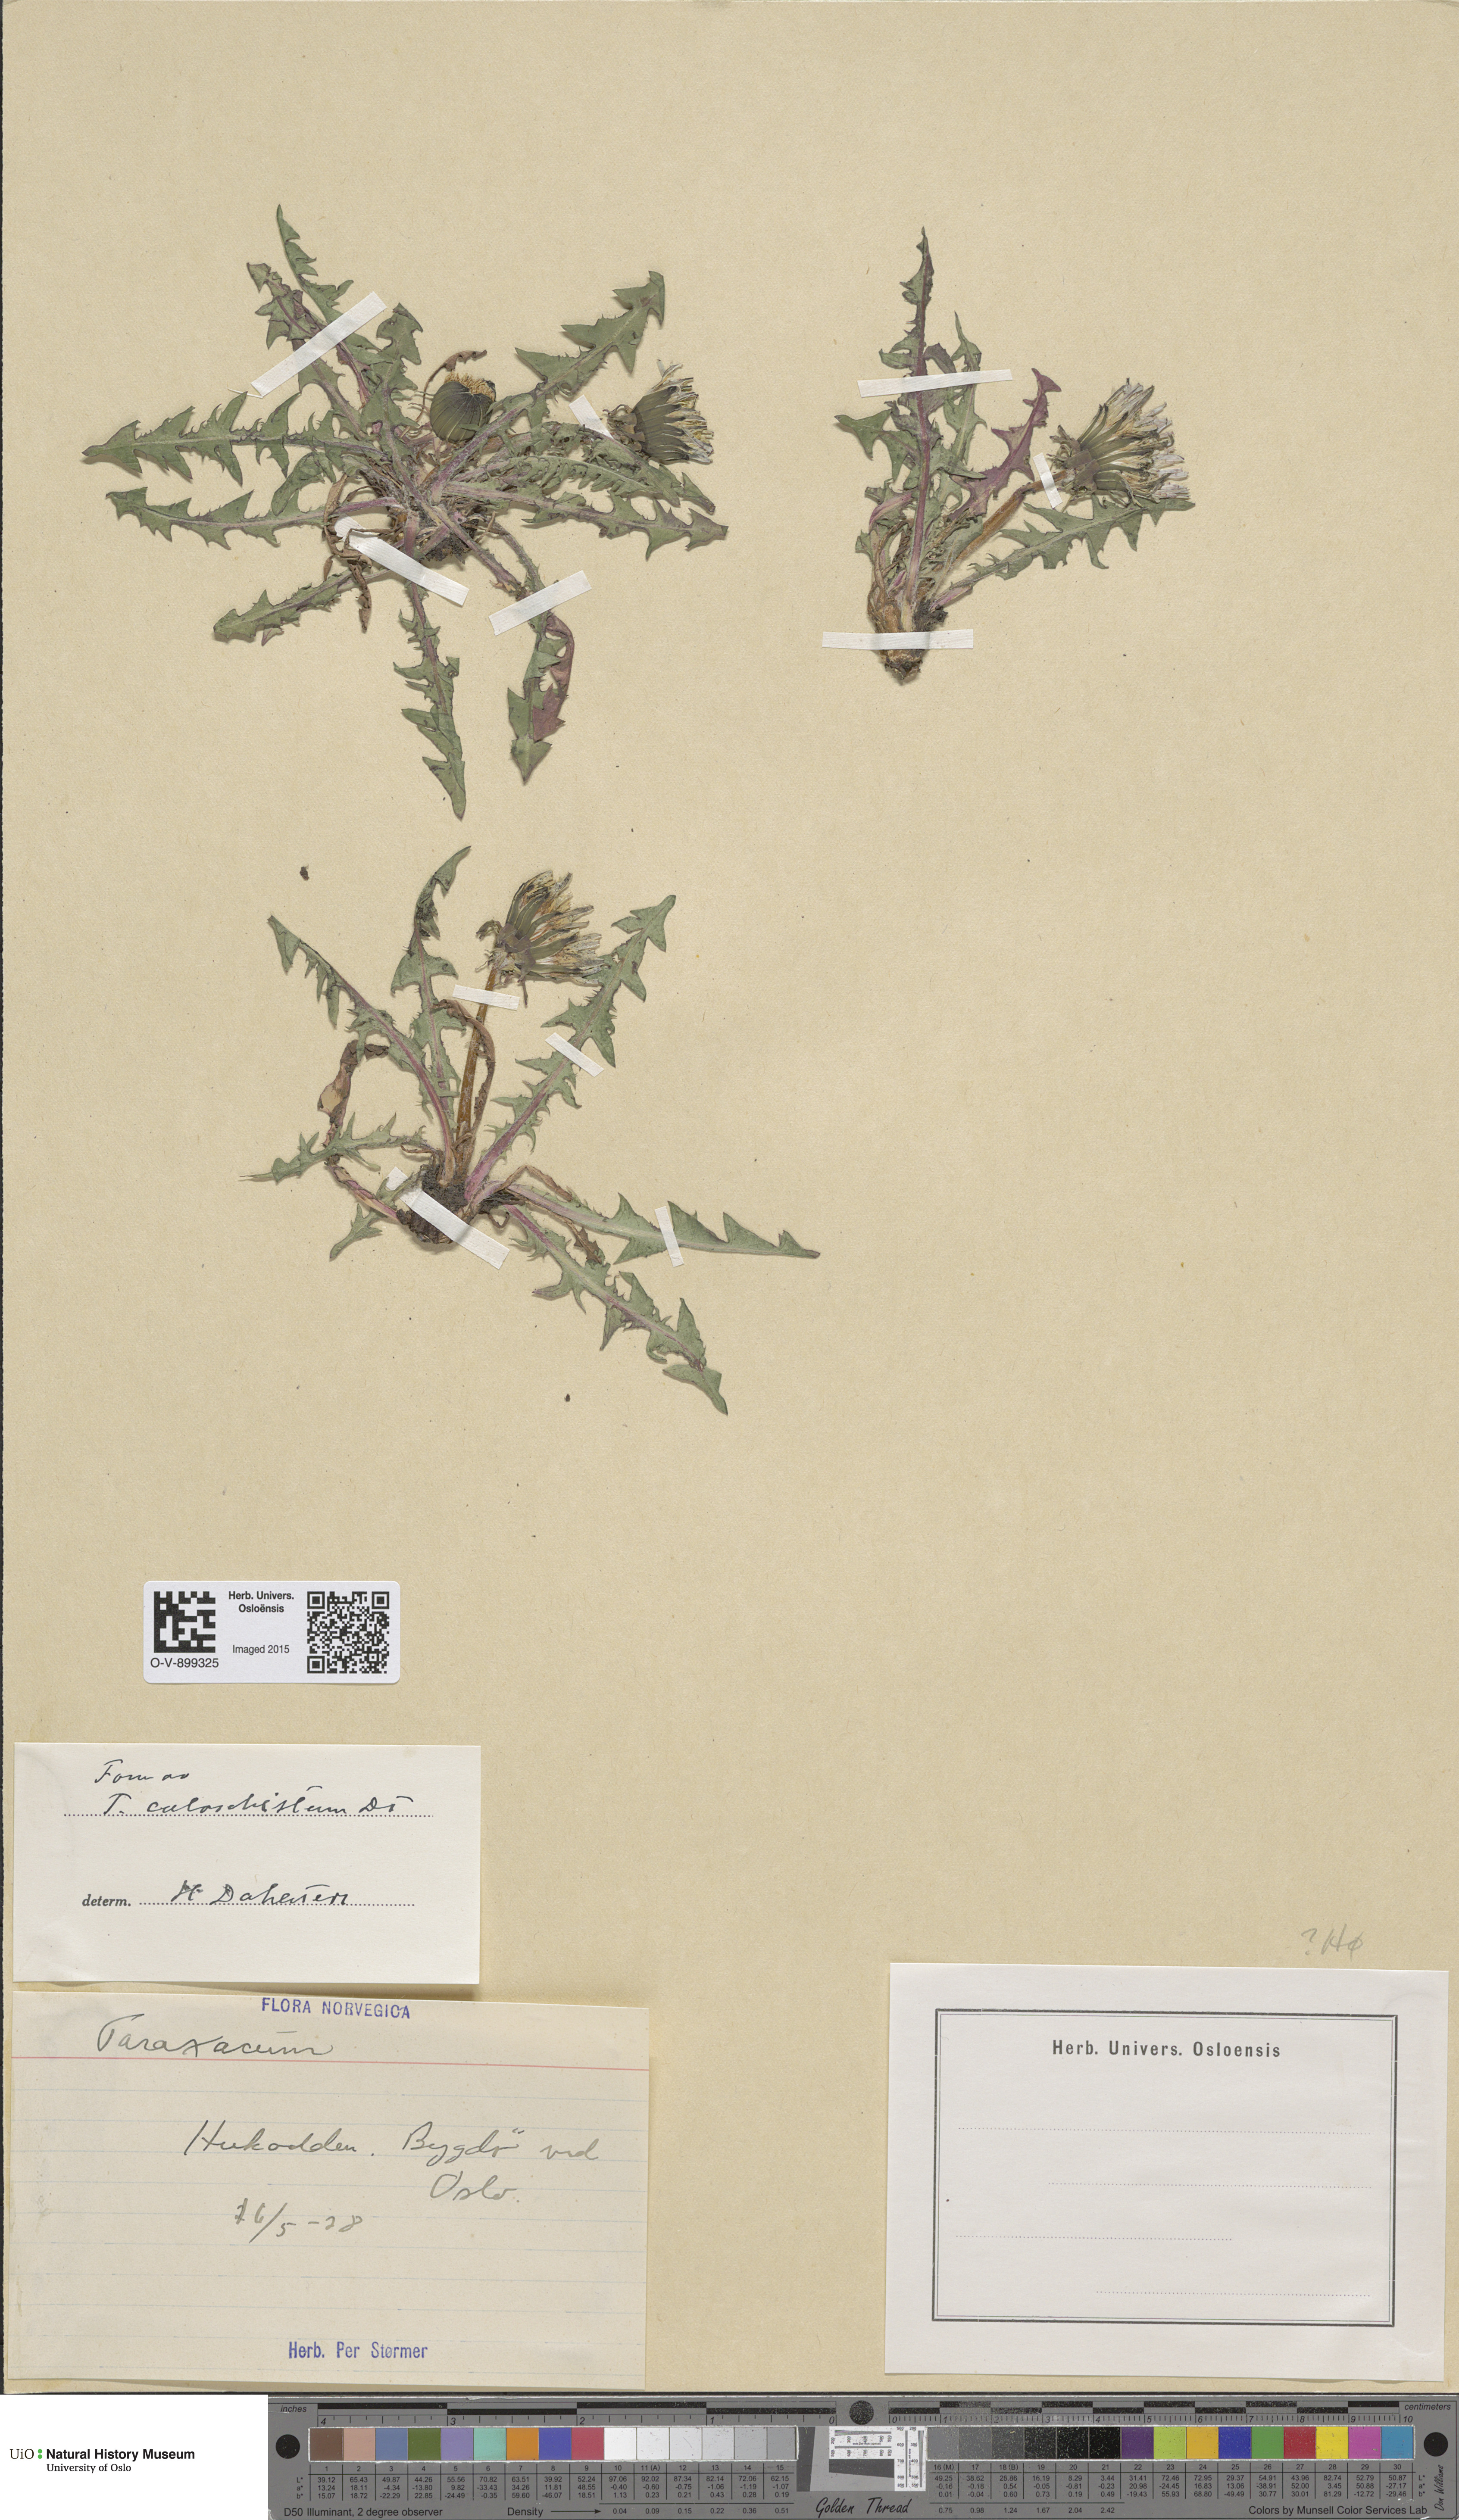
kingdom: Plantae
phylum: Tracheophyta
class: Magnoliopsida
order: Asterales
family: Asteraceae
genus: Taraxacum
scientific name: Taraxacum caloschistum
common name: Brilliant-stalked dandelion
